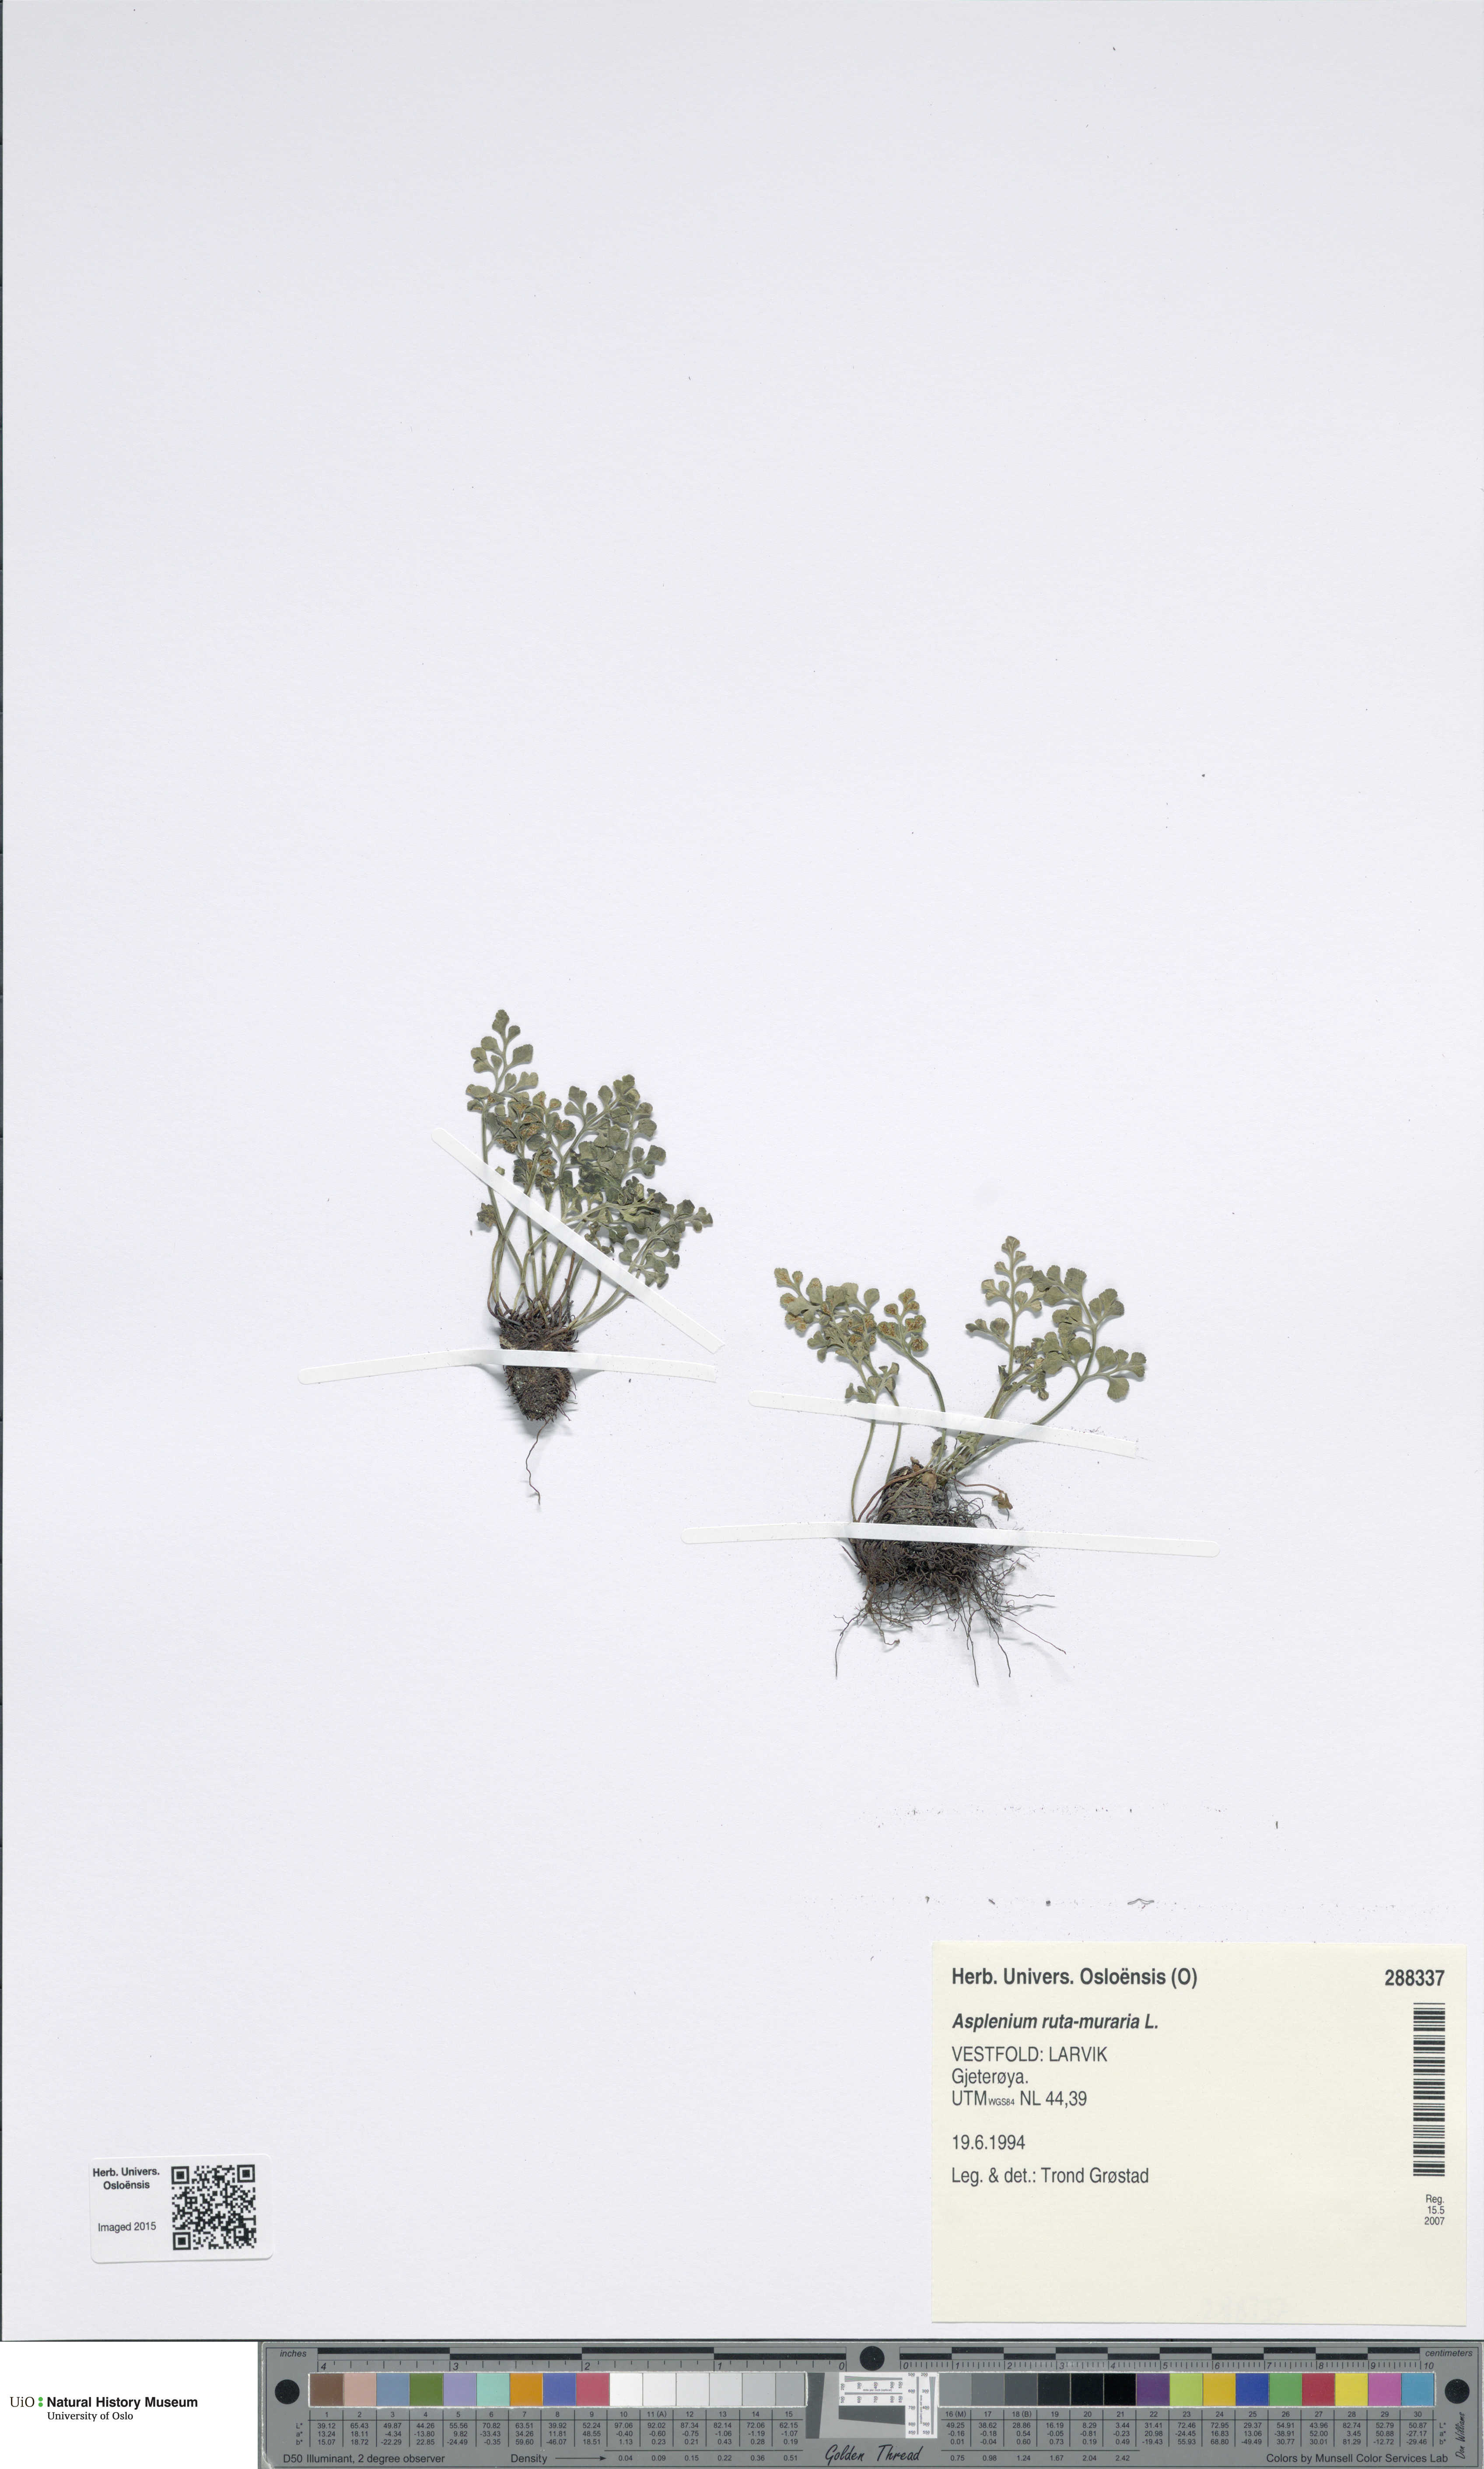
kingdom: Plantae
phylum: Tracheophyta
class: Polypodiopsida
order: Polypodiales
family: Aspleniaceae
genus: Asplenium
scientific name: Asplenium ruta-muraria
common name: Wall-rue
